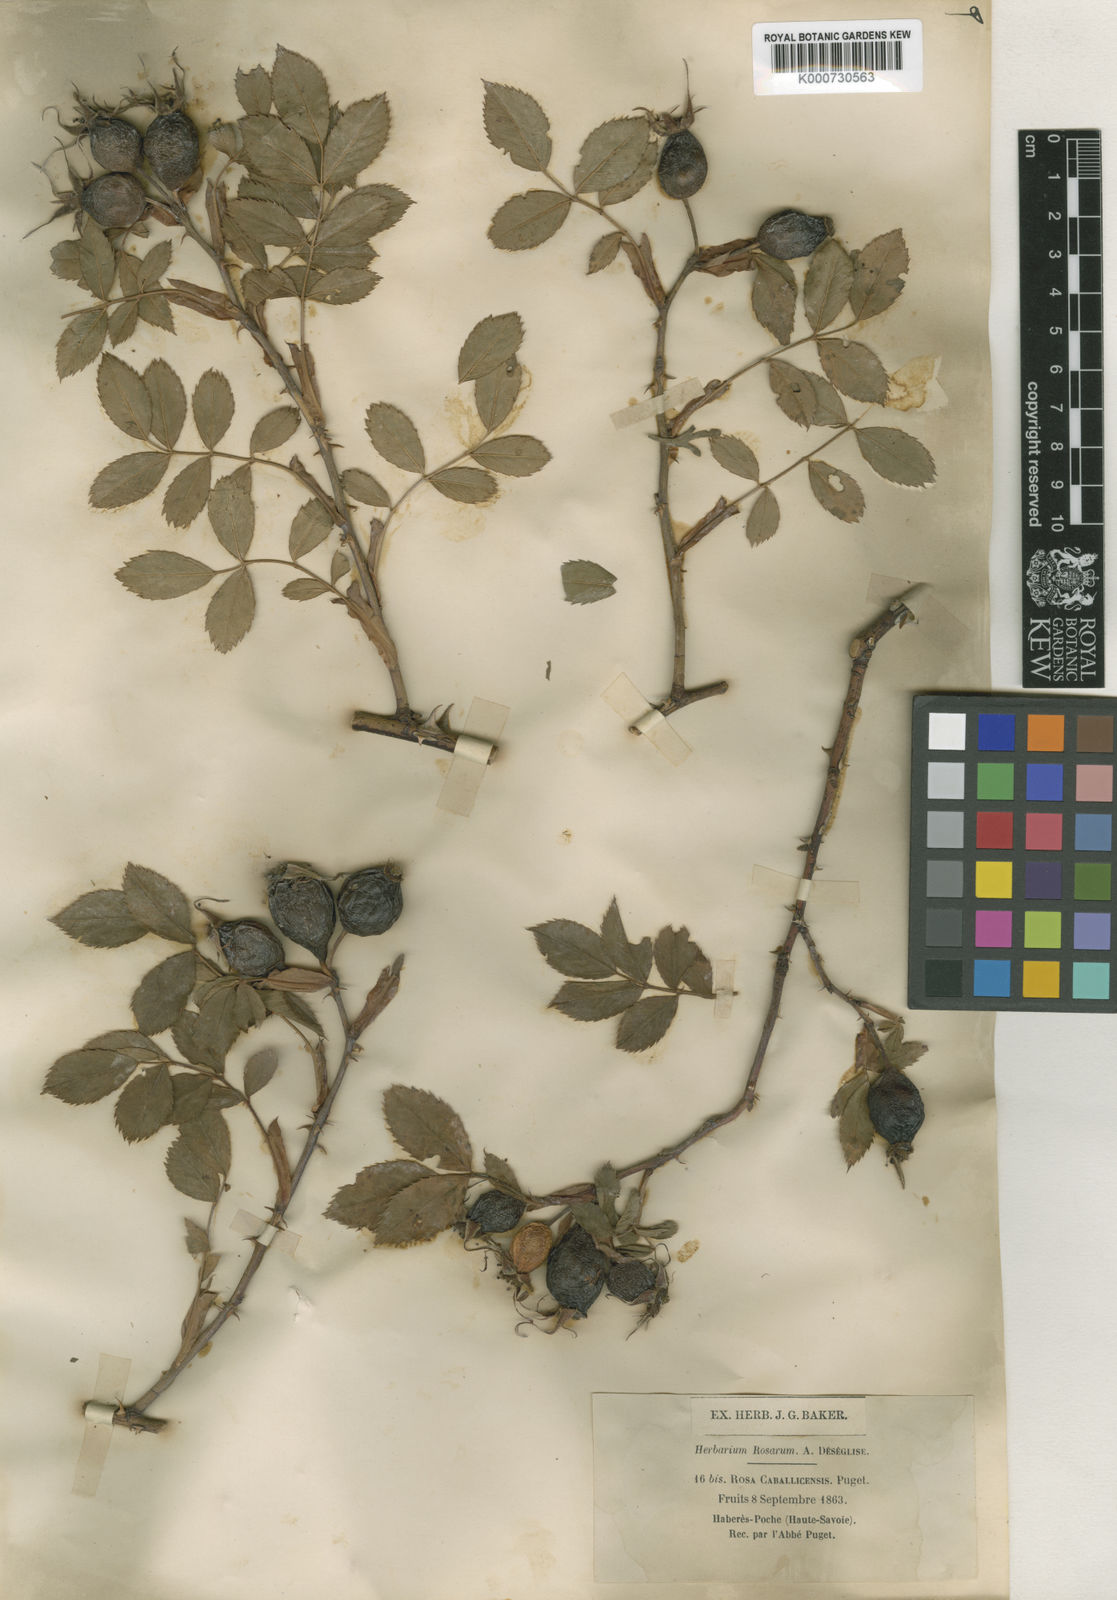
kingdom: Plantae
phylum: Tracheophyta
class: Magnoliopsida
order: Rosales
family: Rosaceae
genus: Rosa
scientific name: Rosa dumalis
